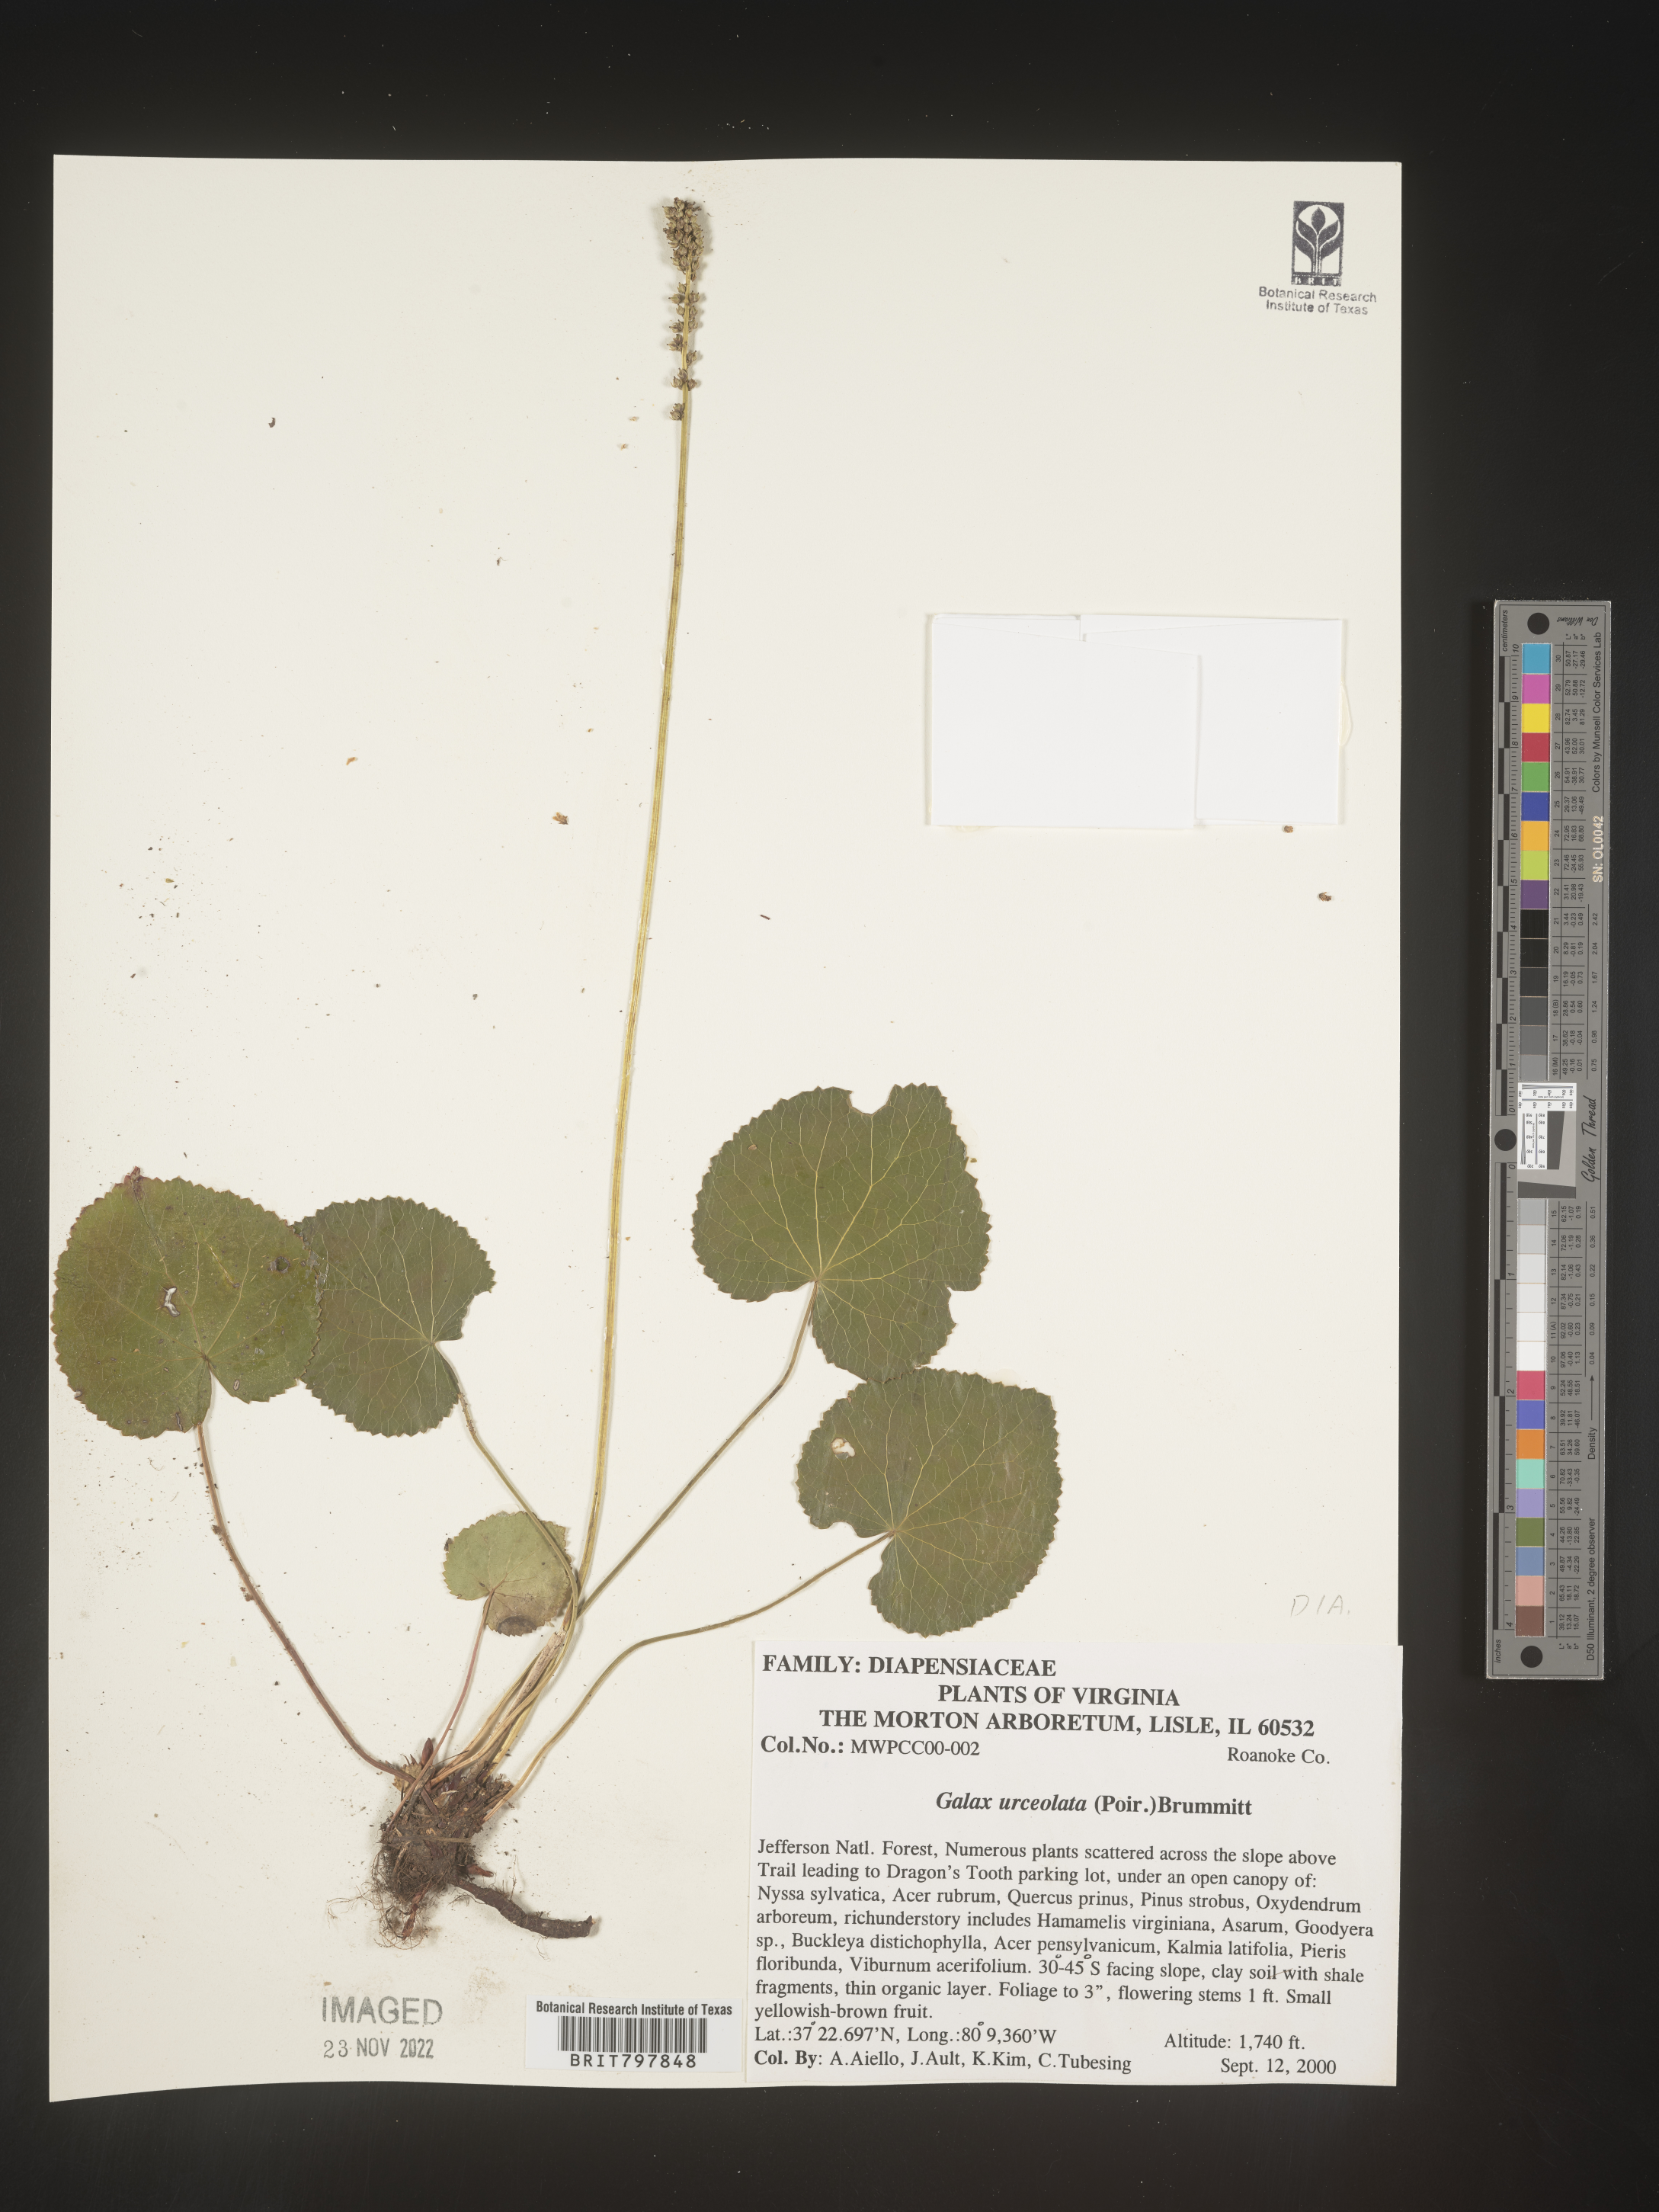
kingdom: Plantae
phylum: Tracheophyta
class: Magnoliopsida
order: Ericales
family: Diapensiaceae
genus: Galax
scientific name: Galax
